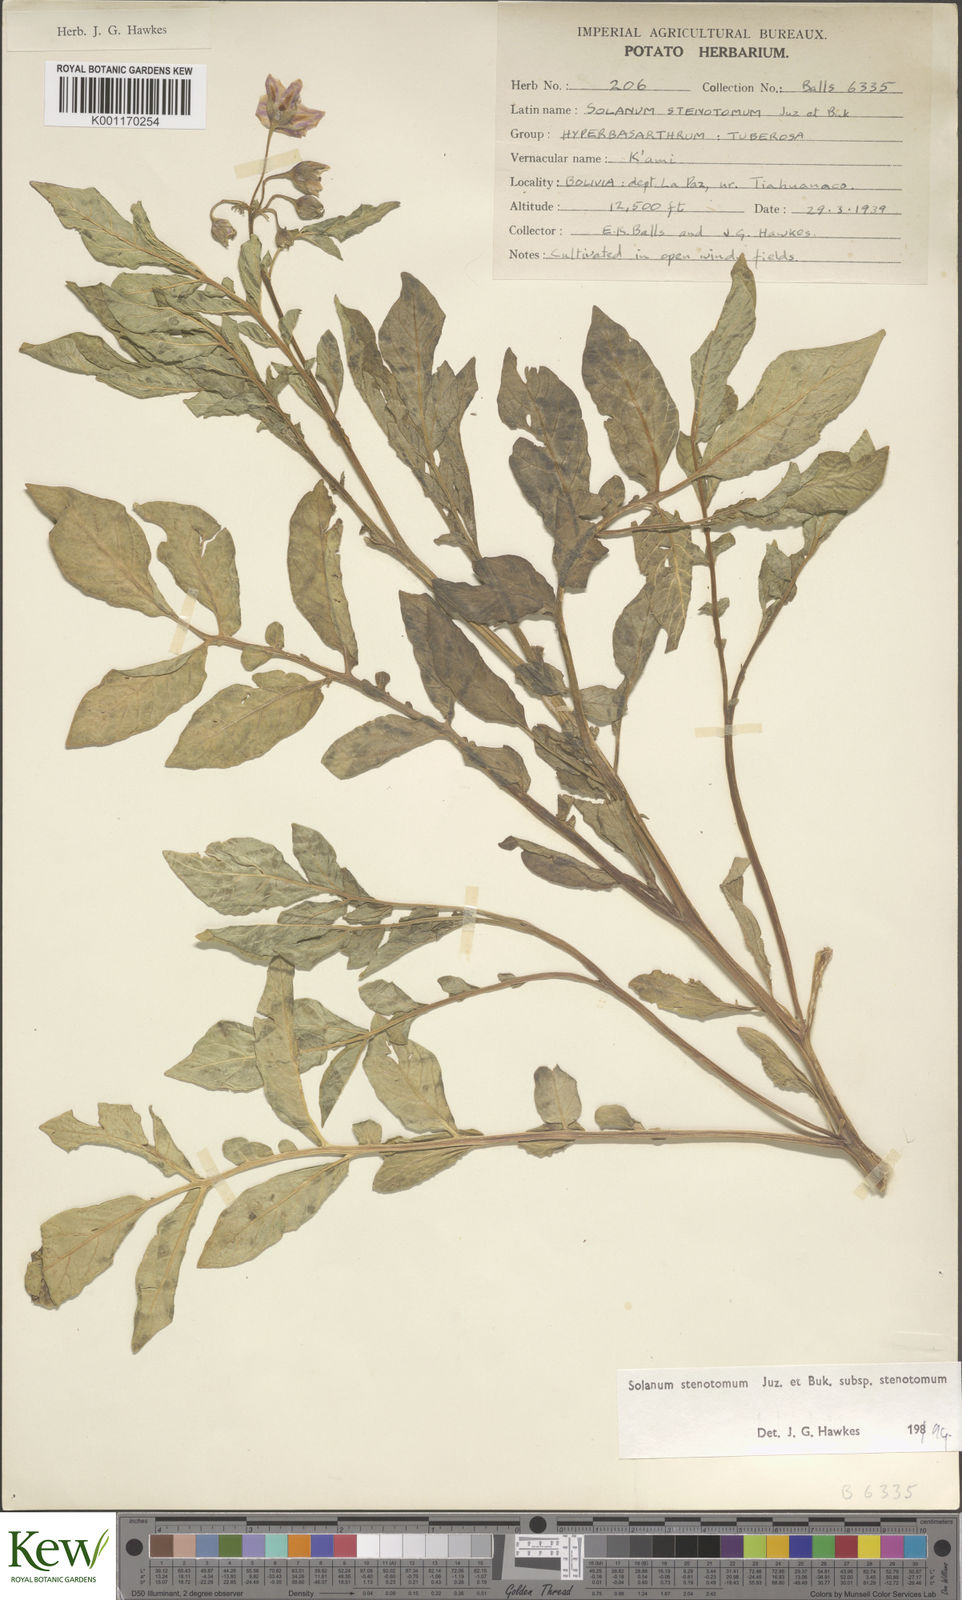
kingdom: Plantae
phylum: Tracheophyta
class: Magnoliopsida
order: Solanales
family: Solanaceae
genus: Solanum
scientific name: Solanum tuberosum
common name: Potato
